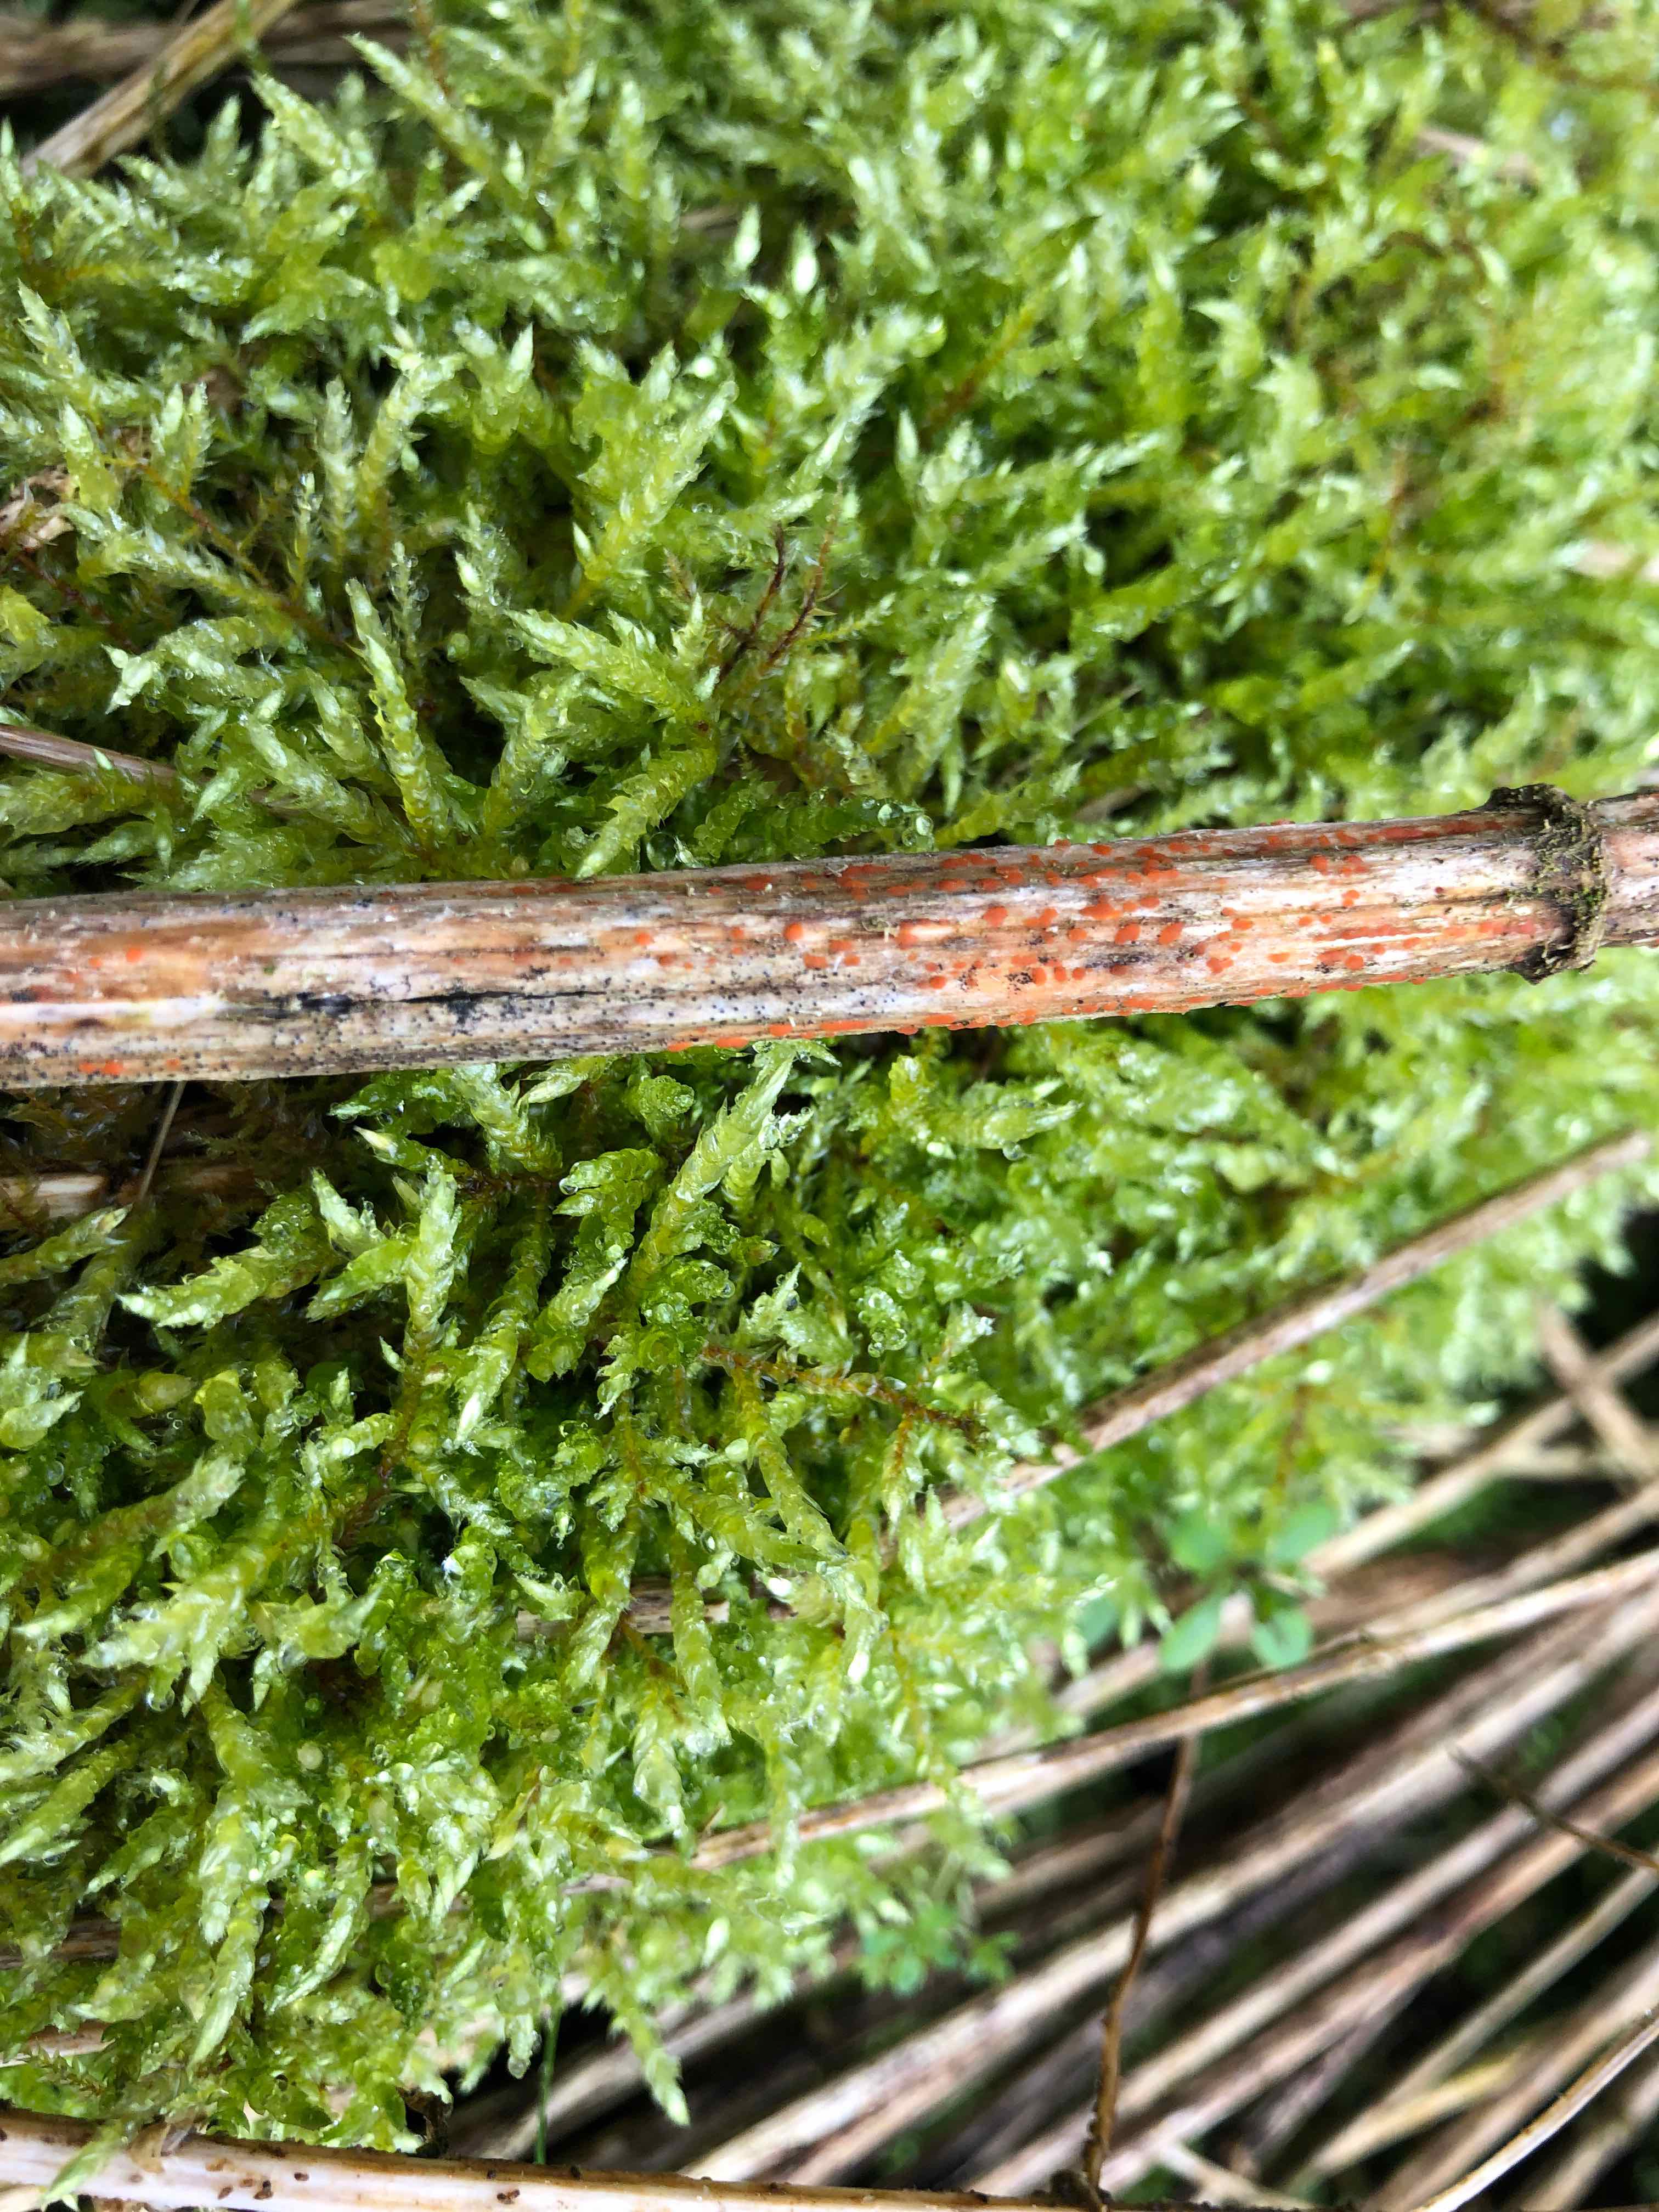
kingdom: Fungi
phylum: Ascomycota
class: Leotiomycetes
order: Helotiales
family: Calloriaceae
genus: Calloria
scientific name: Calloria urticae
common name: nælde-orangeskive
